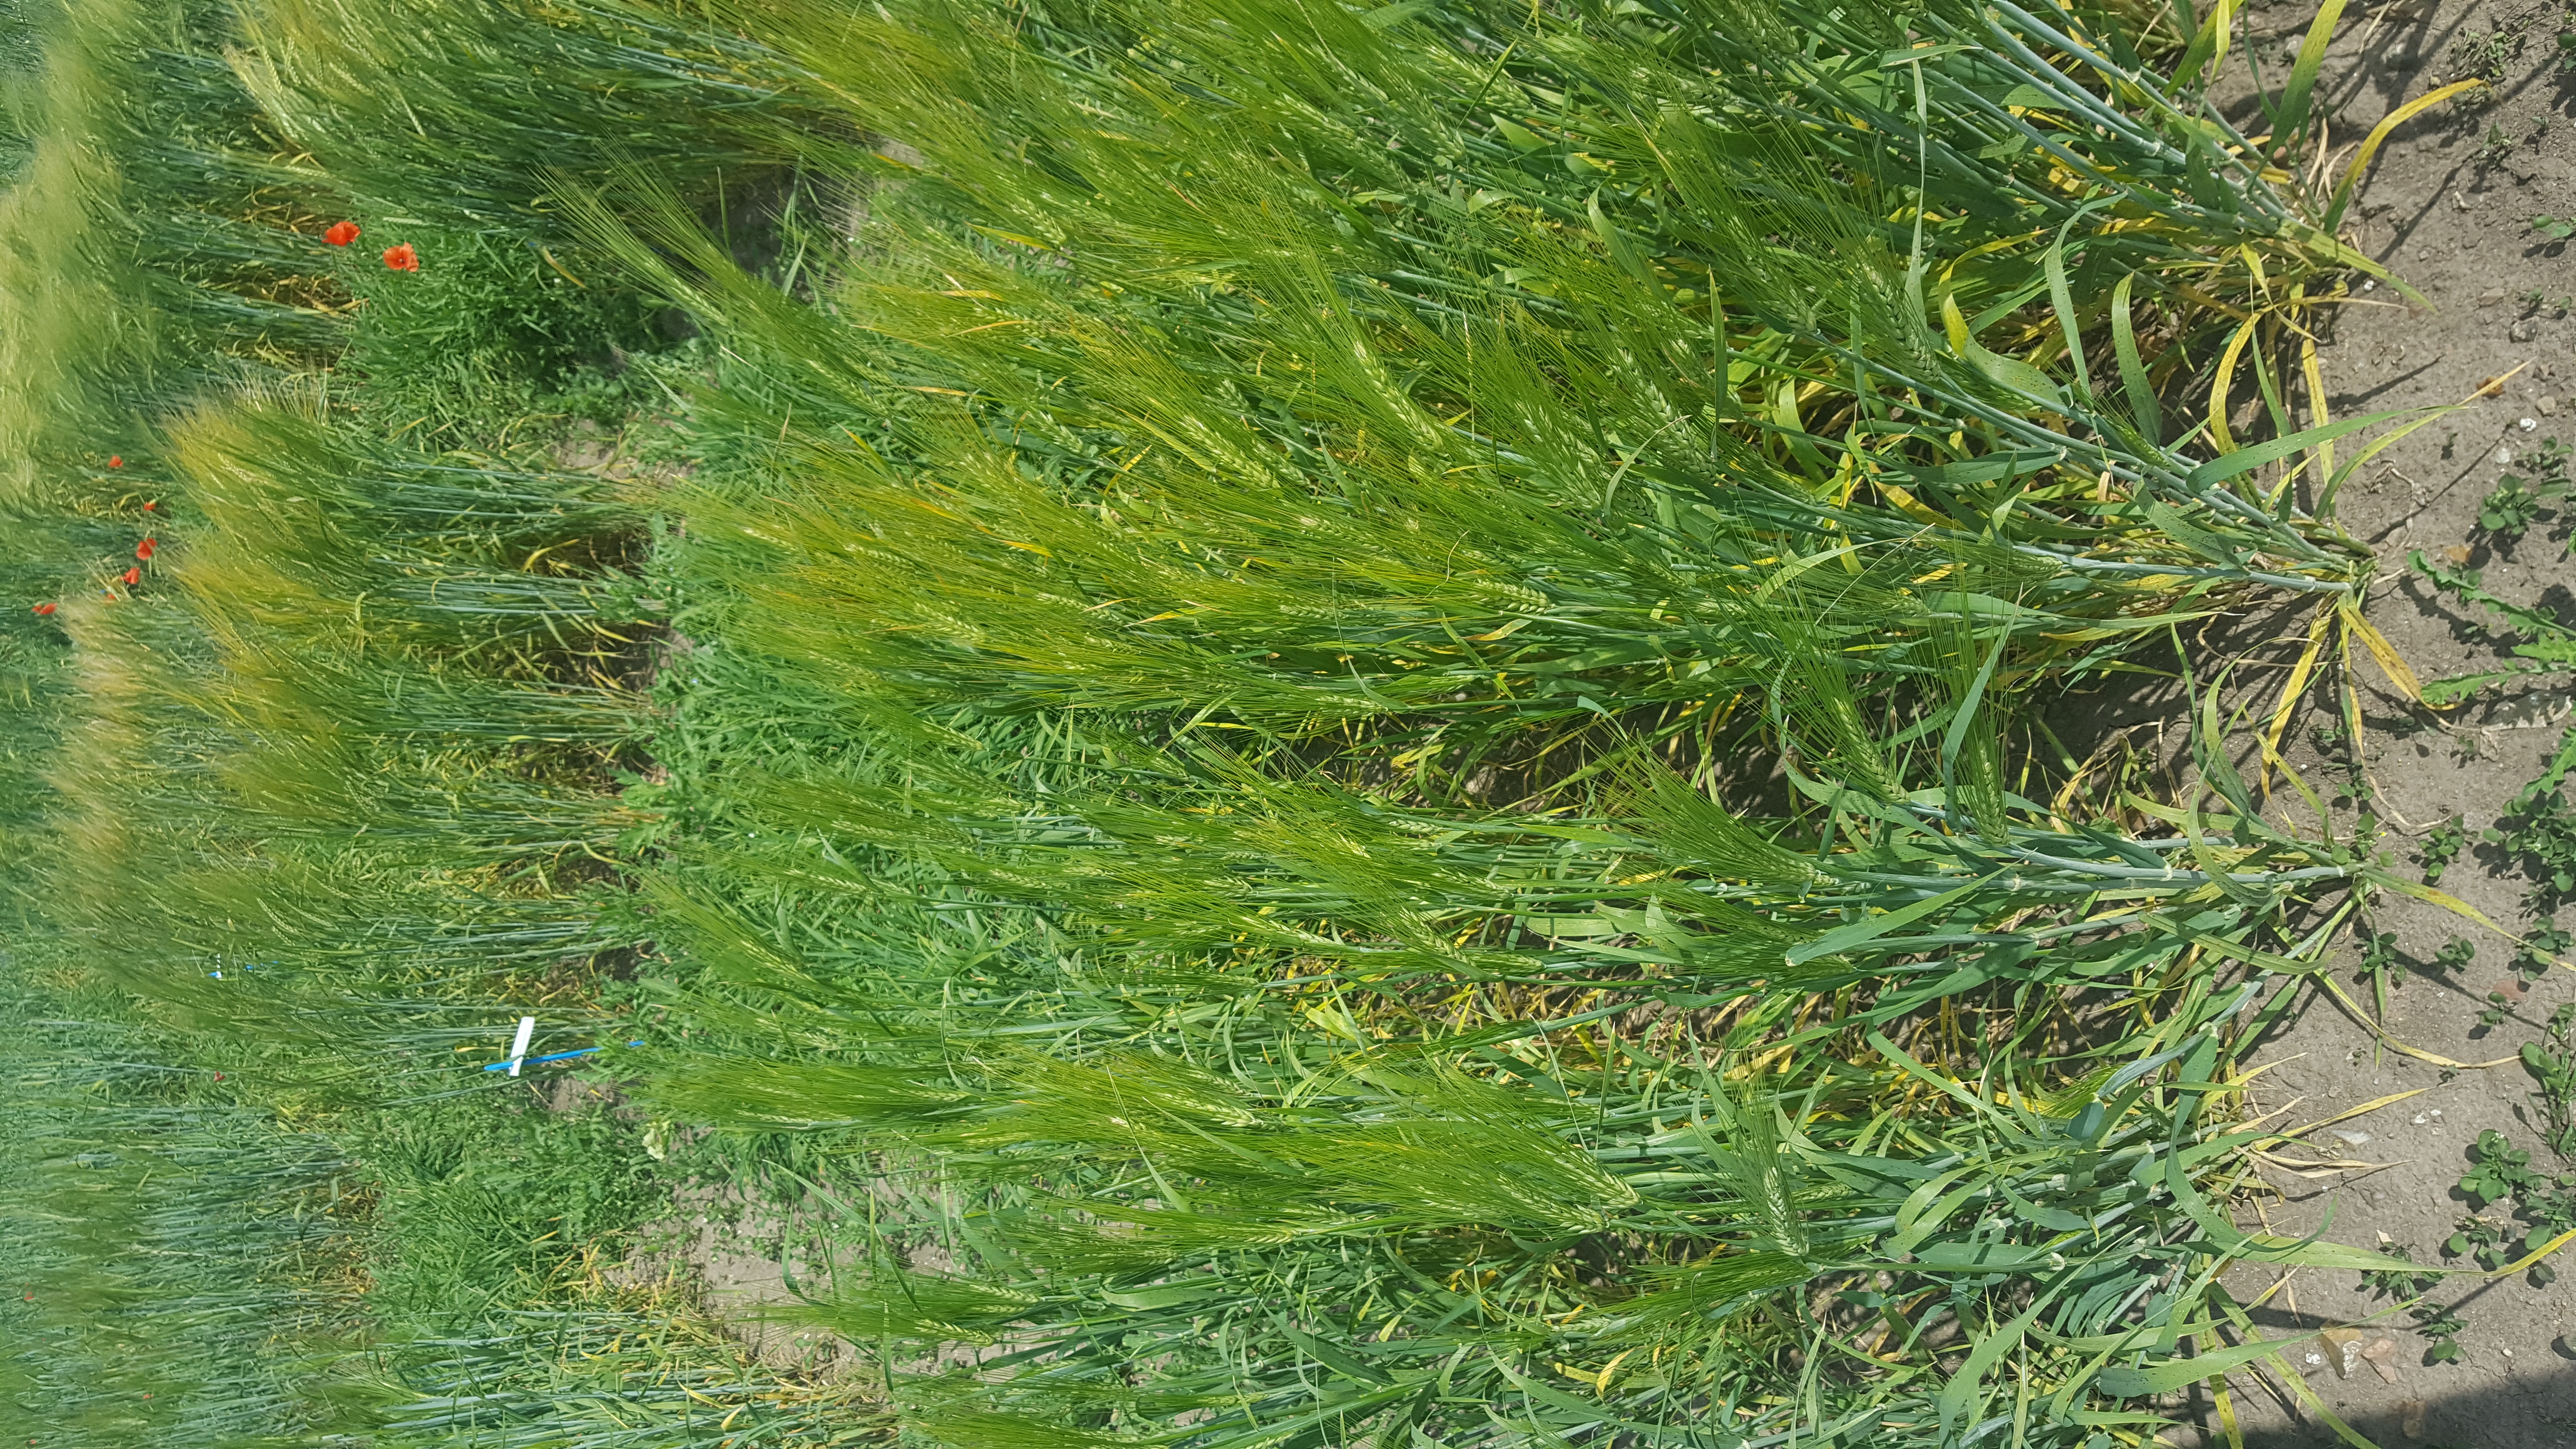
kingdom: Plantae
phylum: Tracheophyta
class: Liliopsida
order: Poales
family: Poaceae
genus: Hordeum
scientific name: Hordeum vulgare
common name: Common barley
